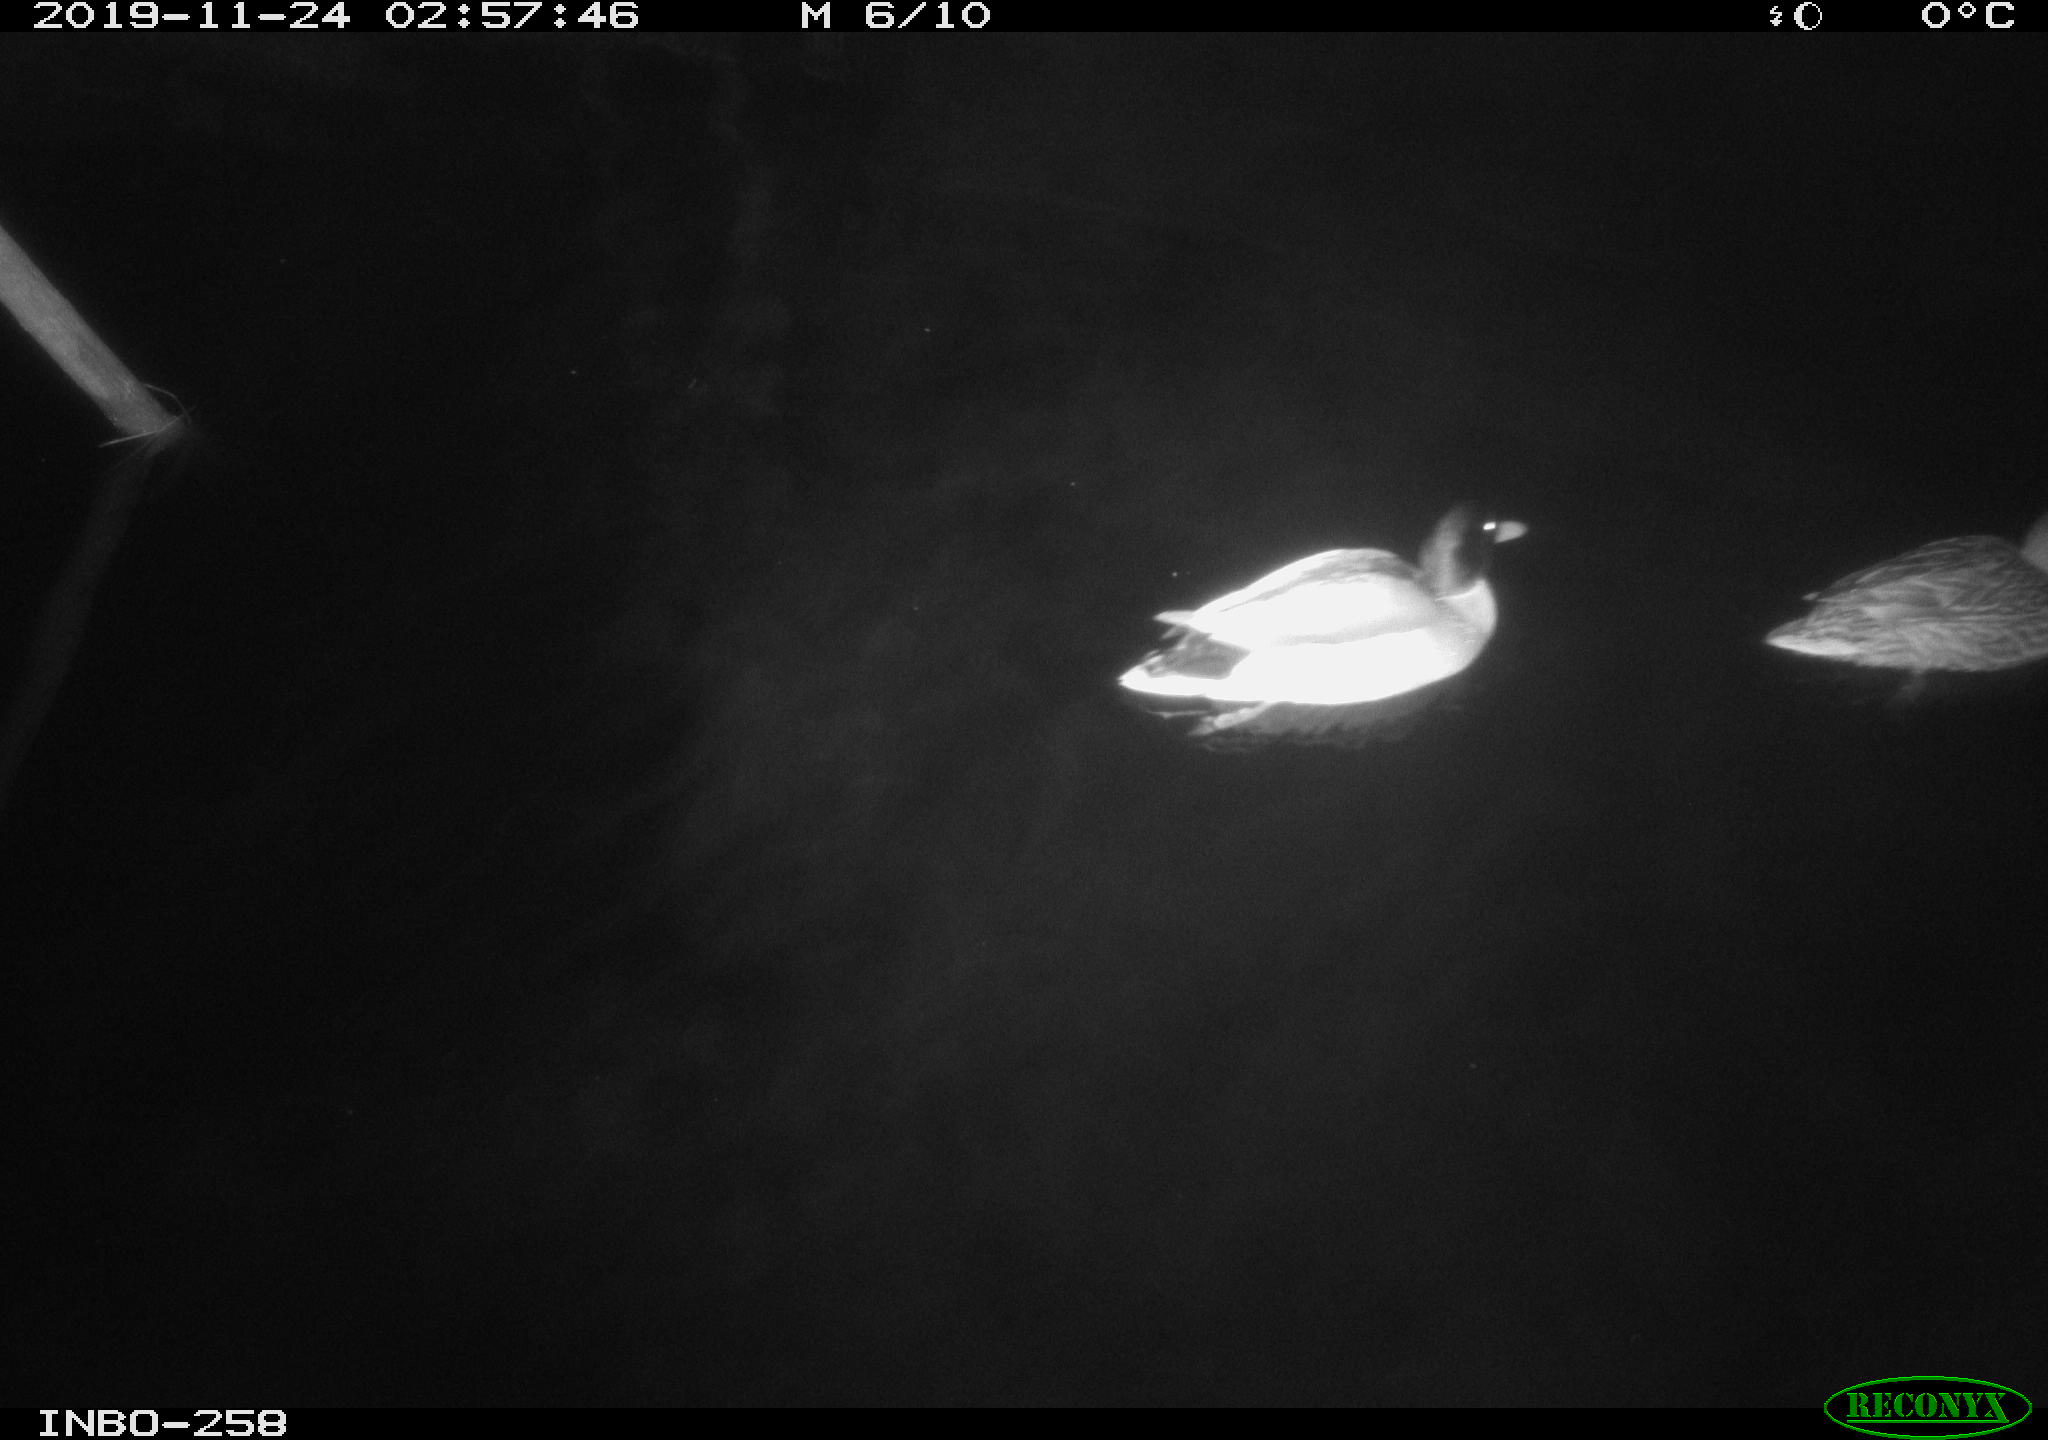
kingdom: Animalia
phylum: Chordata
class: Aves
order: Anseriformes
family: Anatidae
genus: Anas
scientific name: Anas platyrhynchos
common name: Mallard
